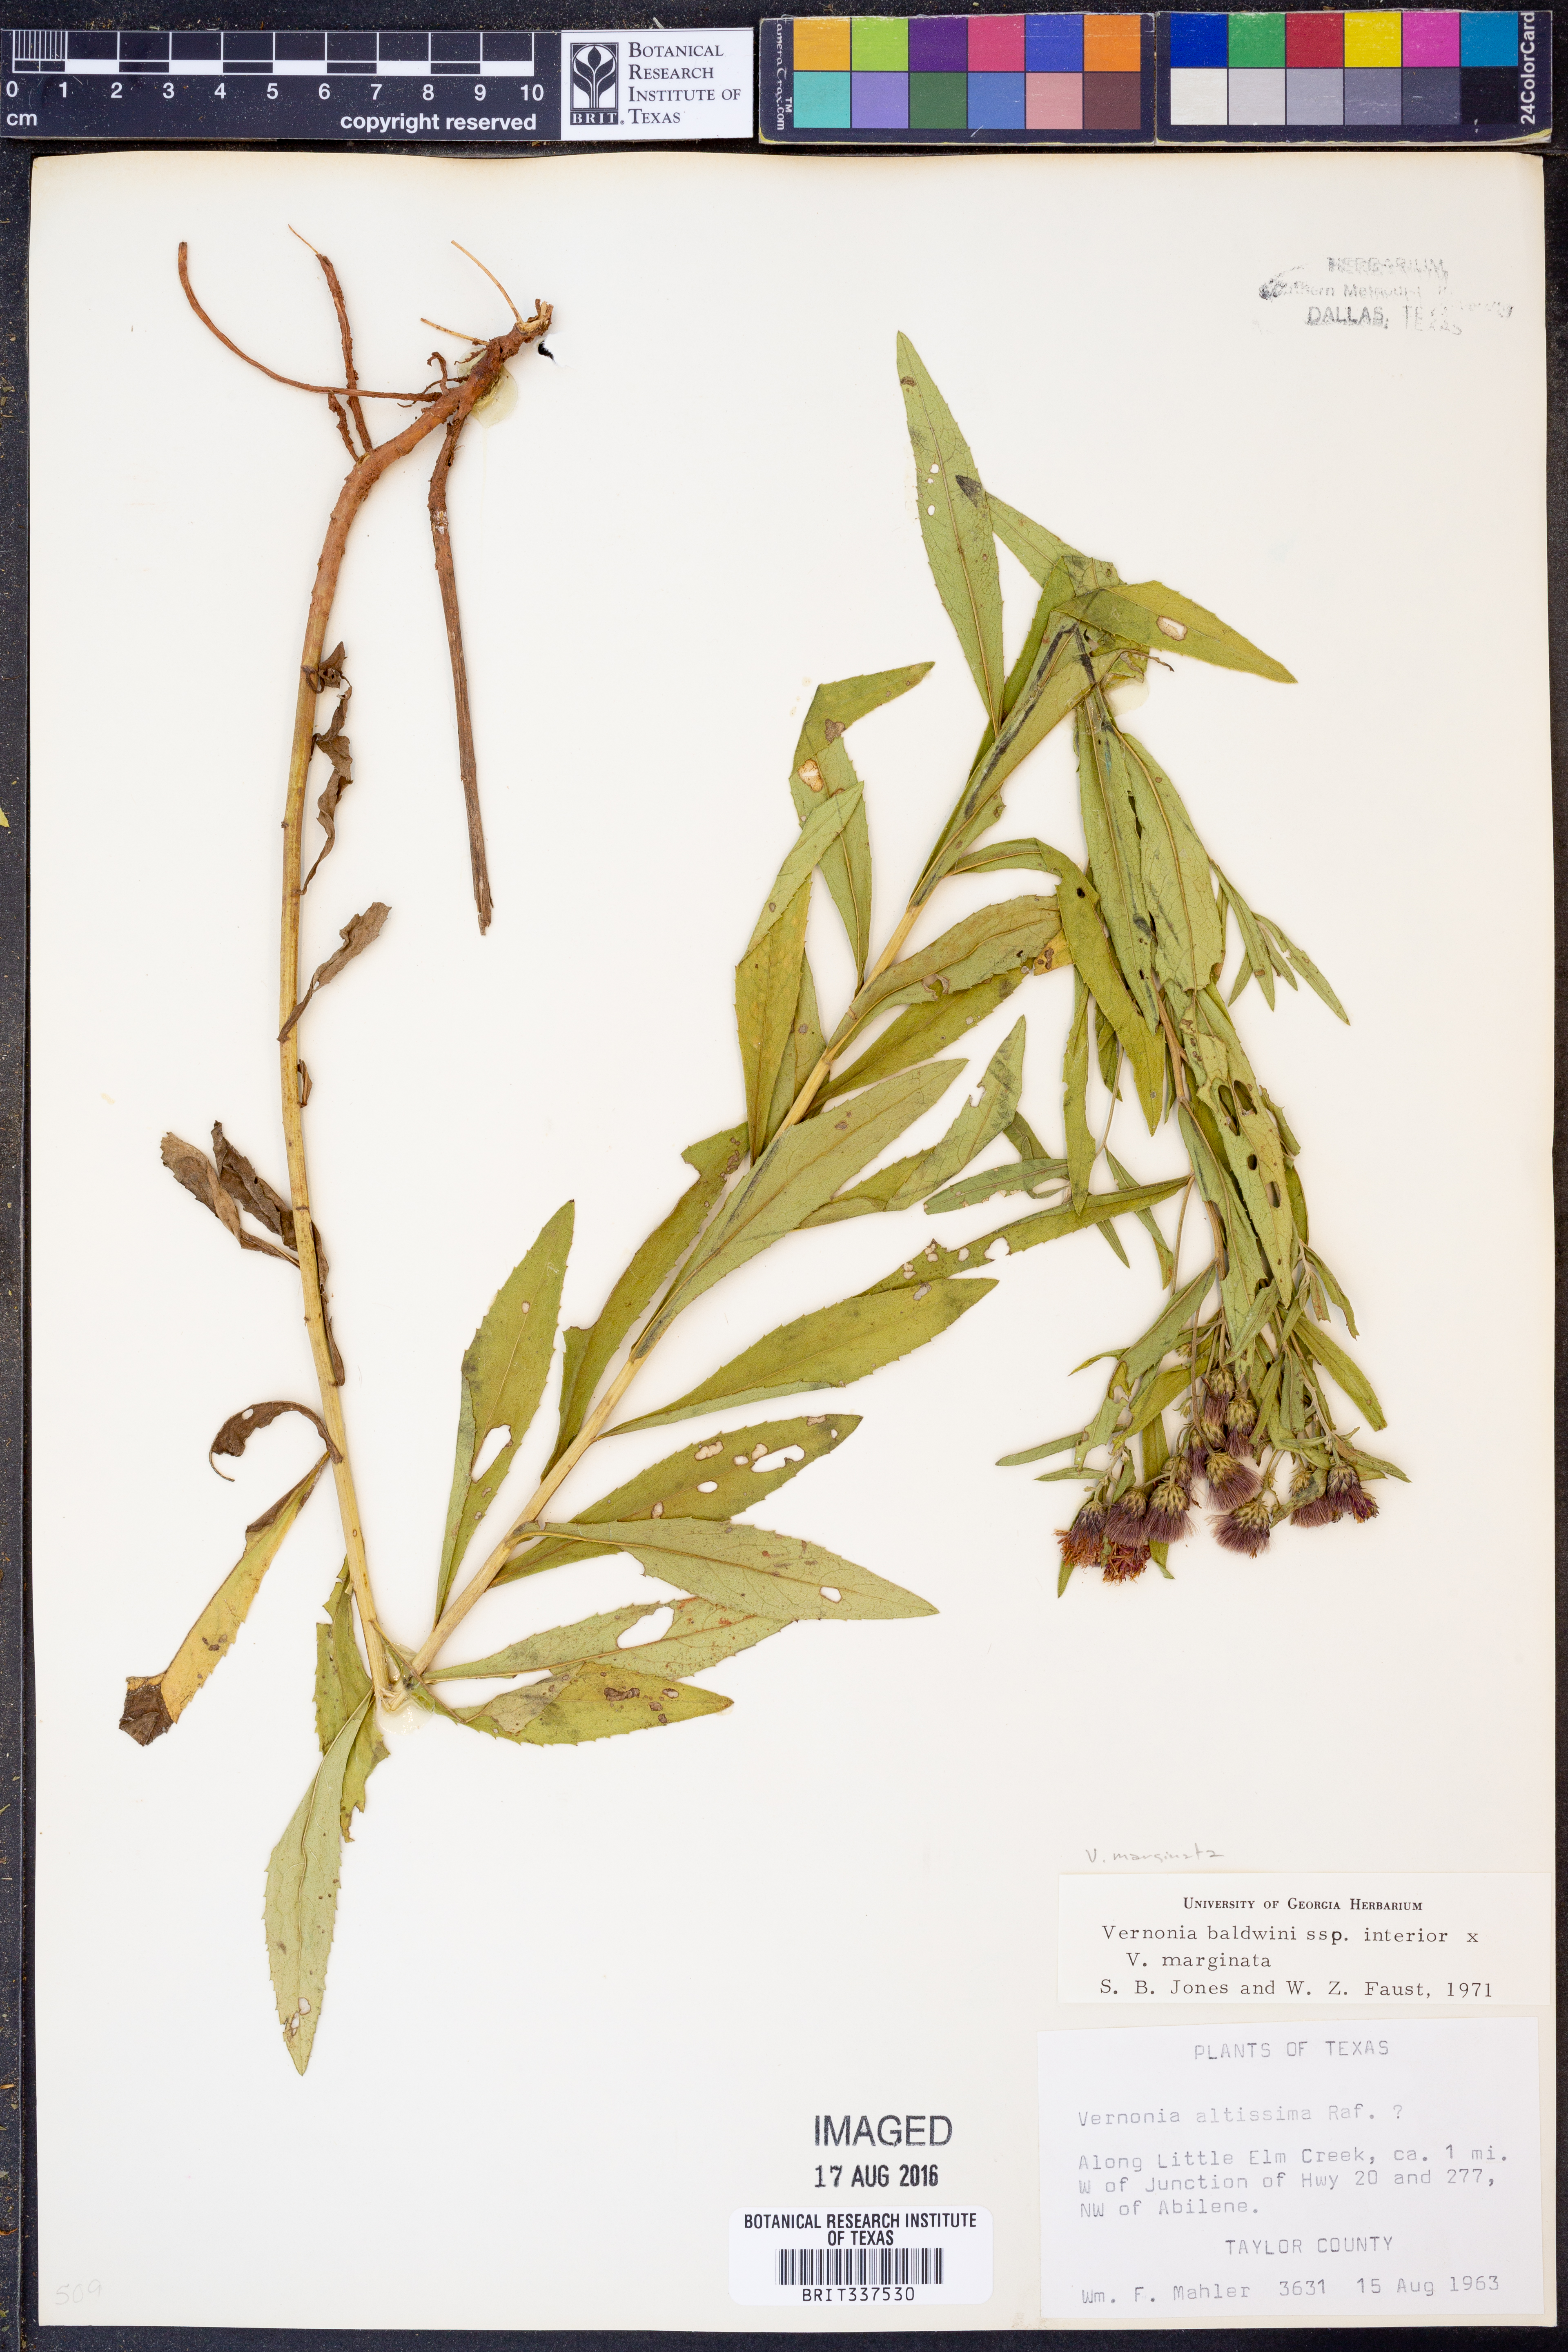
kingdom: Plantae
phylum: Tracheophyta
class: Magnoliopsida
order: Asterales
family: Asteraceae
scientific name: Asteraceae
